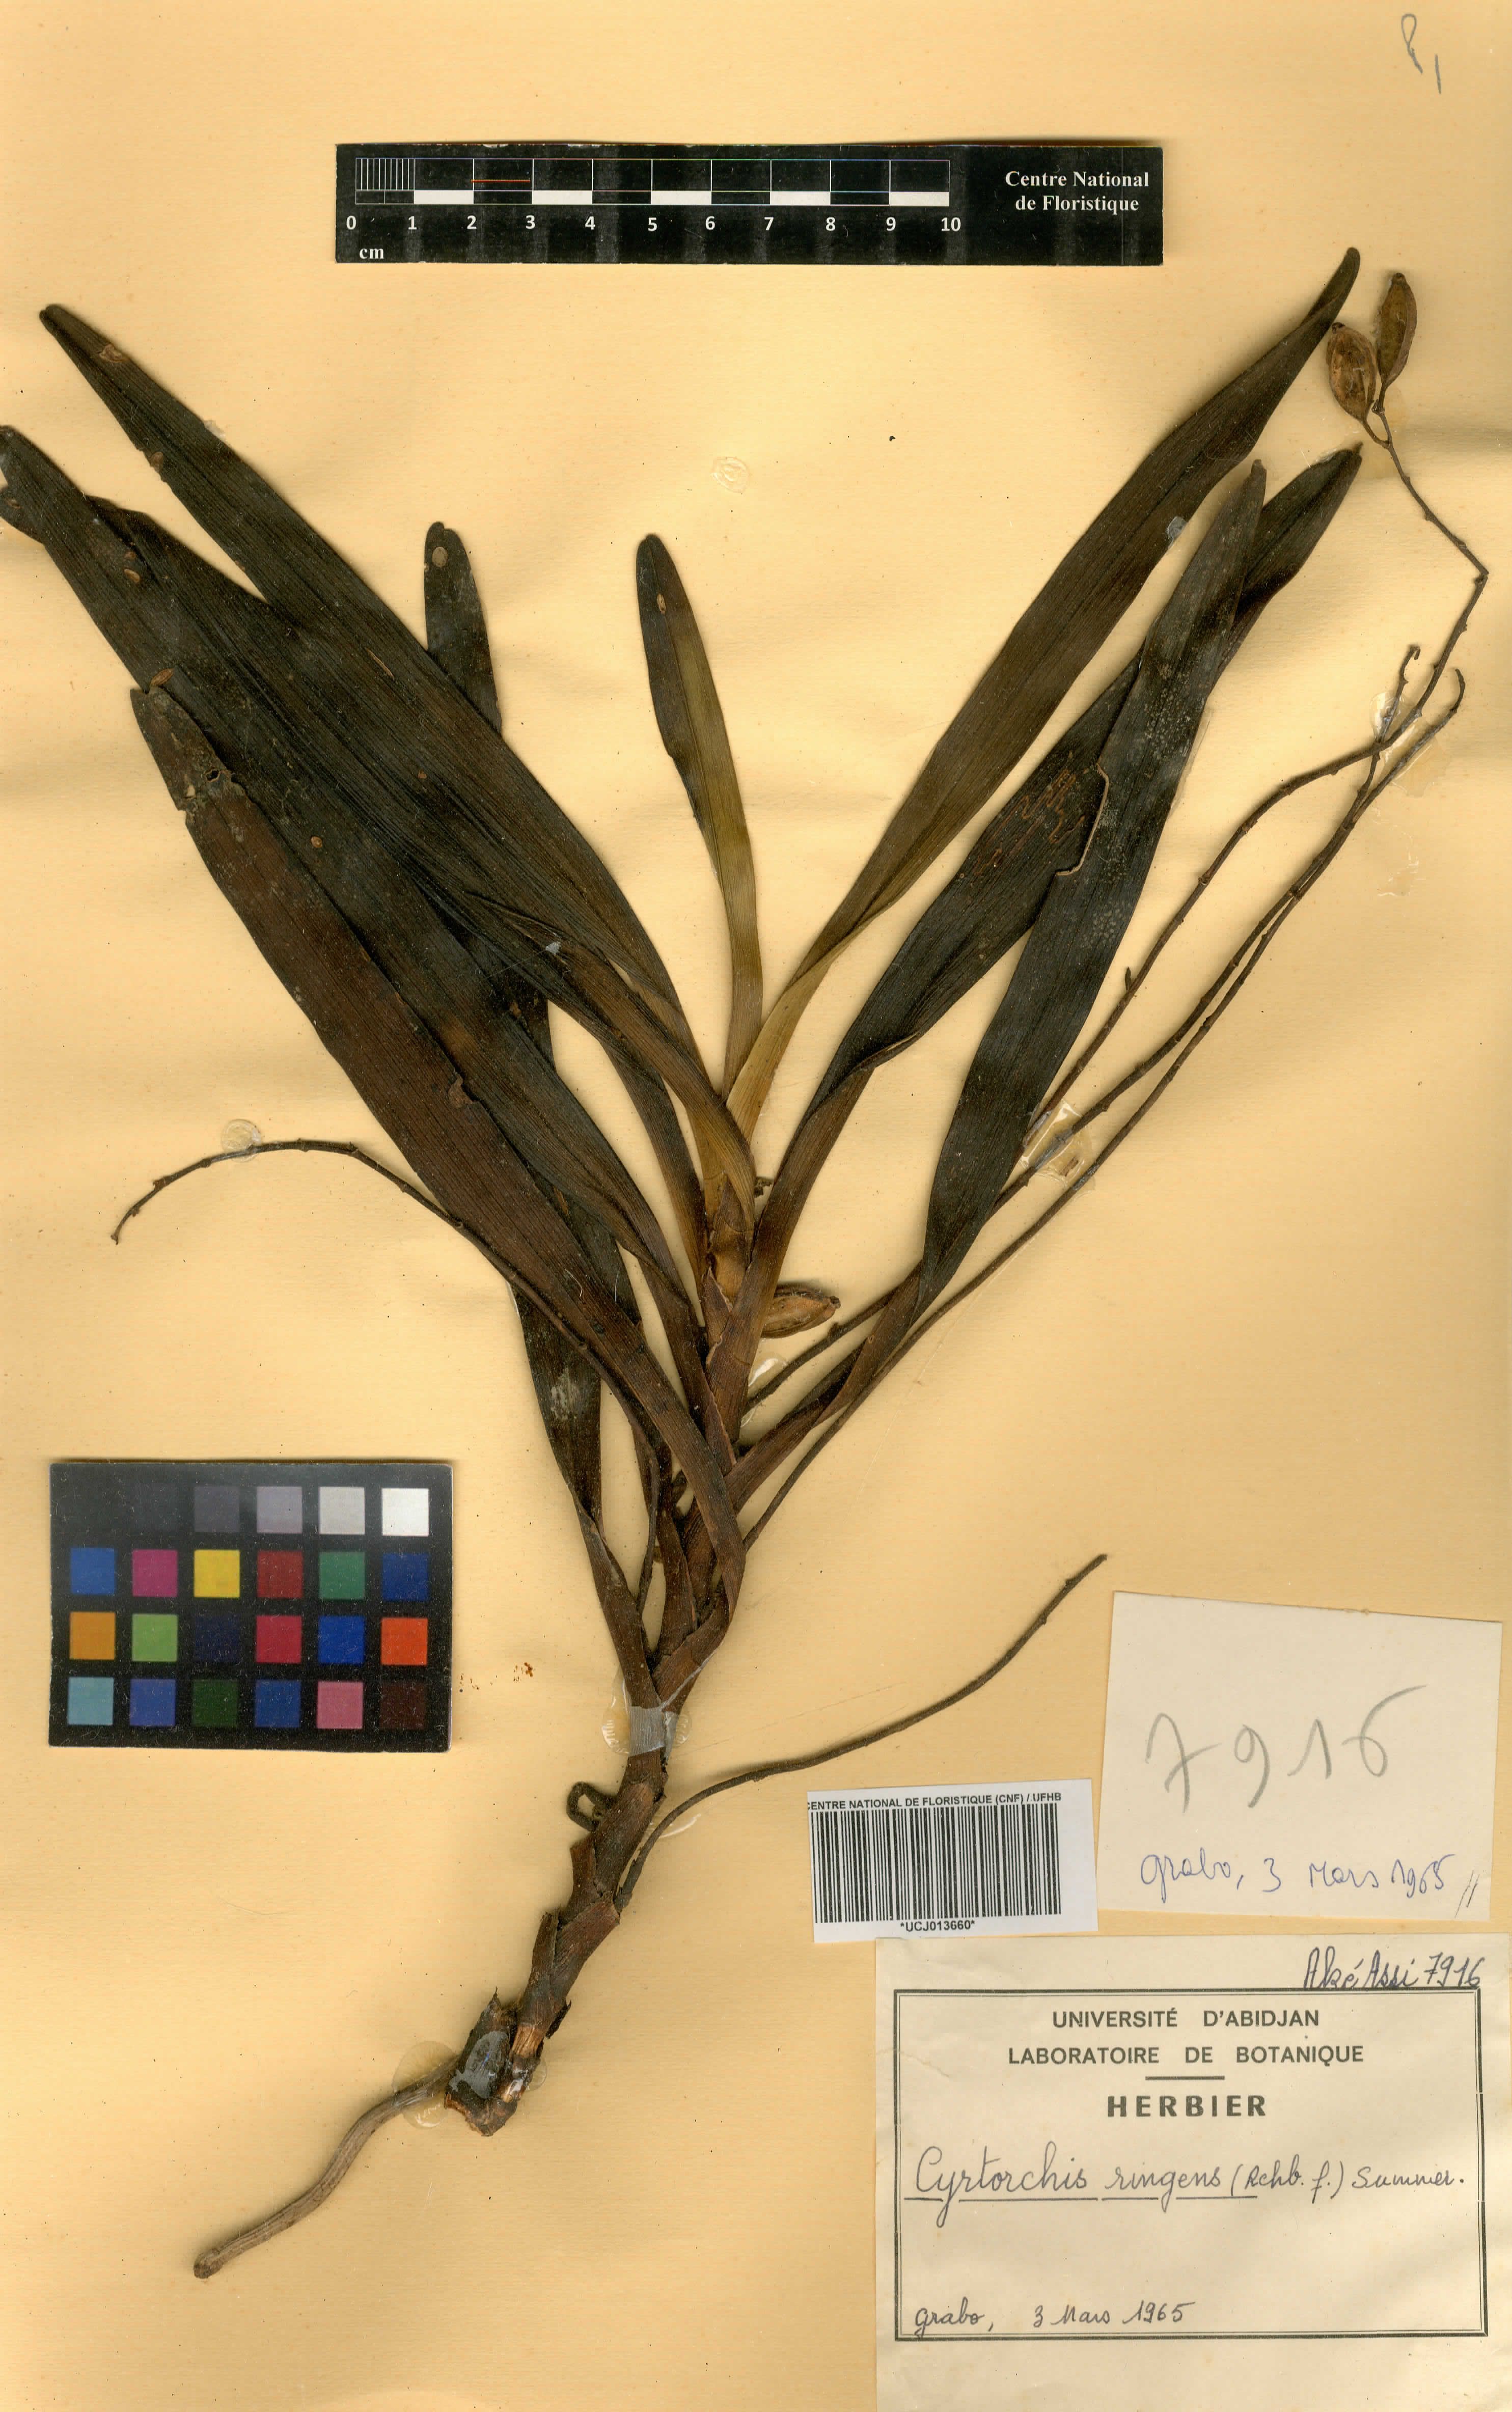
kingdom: Plantae
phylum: Tracheophyta
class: Liliopsida
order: Asparagales
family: Orchidaceae
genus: Cyrtorchis
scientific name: Cyrtorchis ringens
